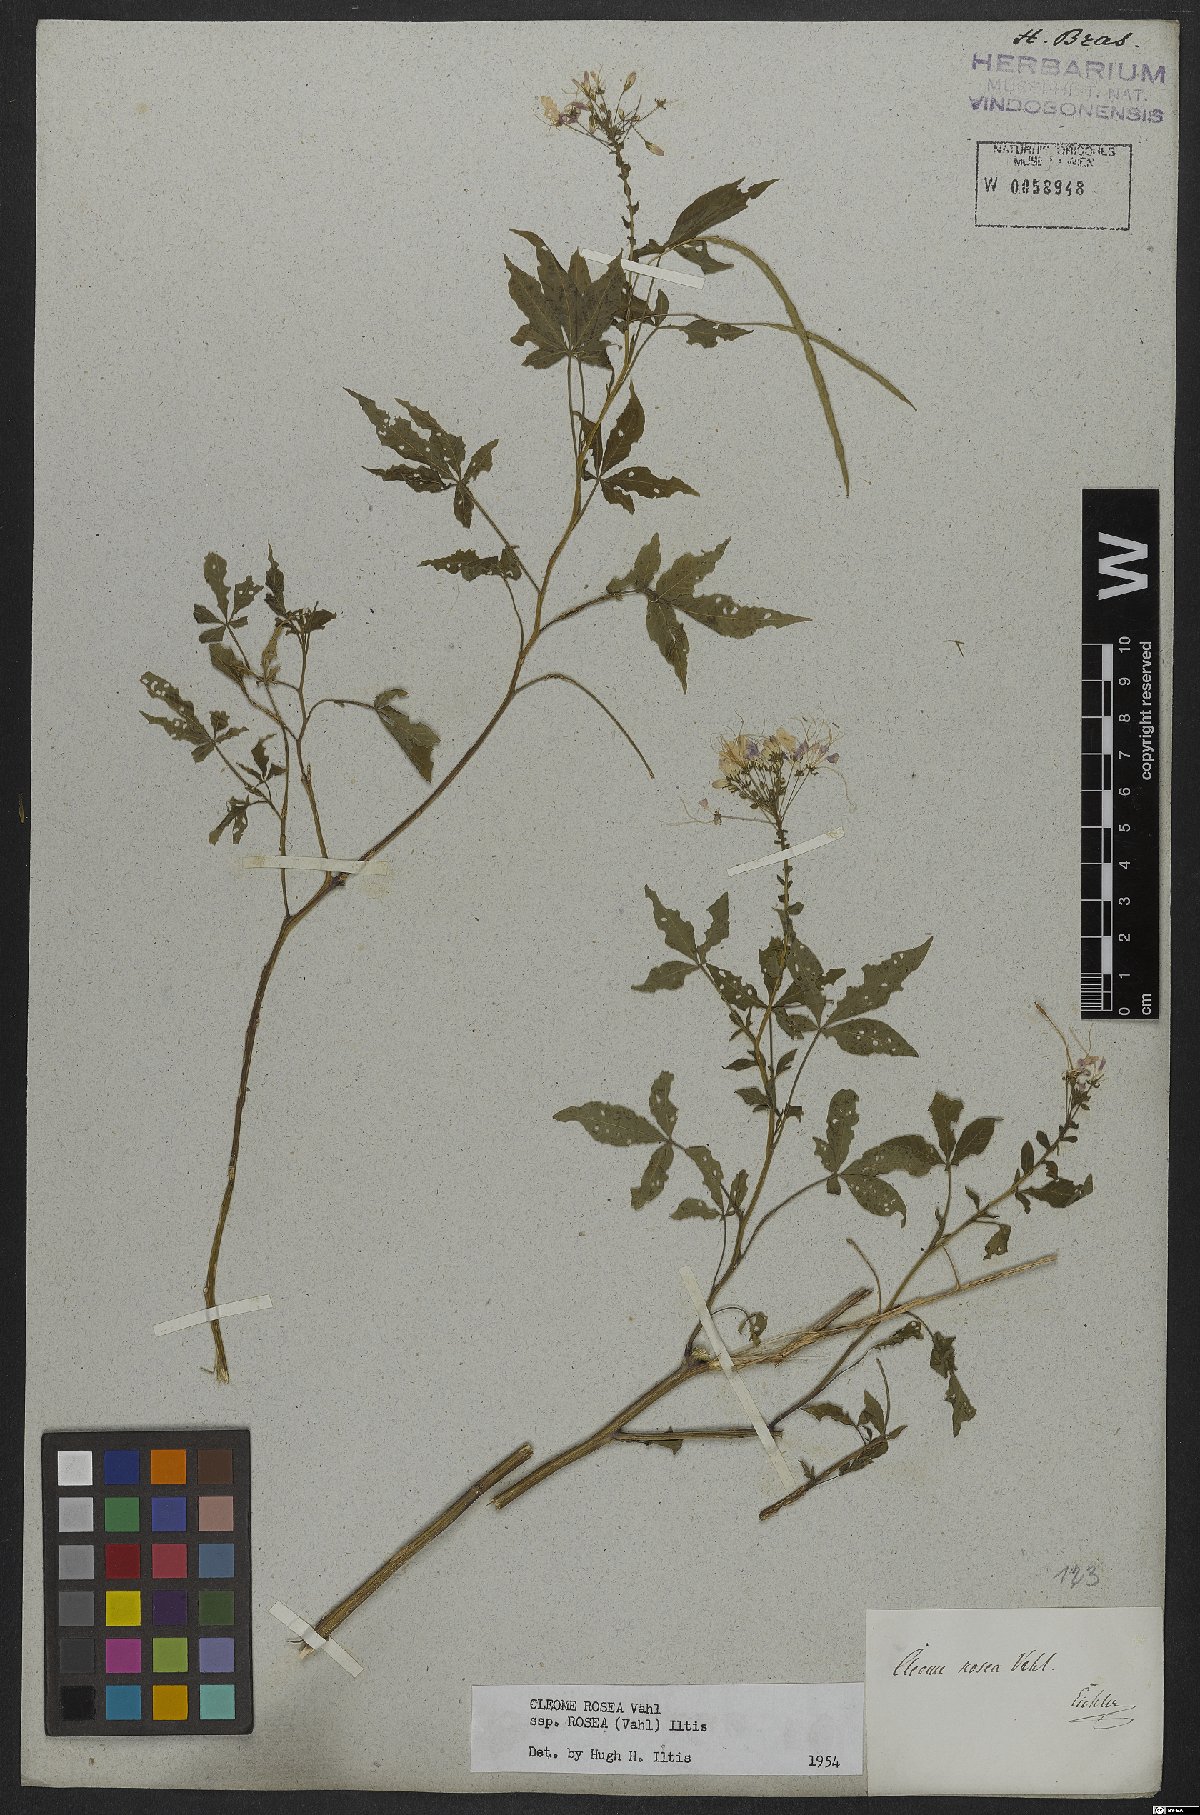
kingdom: Plantae
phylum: Tracheophyta
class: Magnoliopsida
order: Brassicales
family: Cleomaceae
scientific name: Cleomaceae
